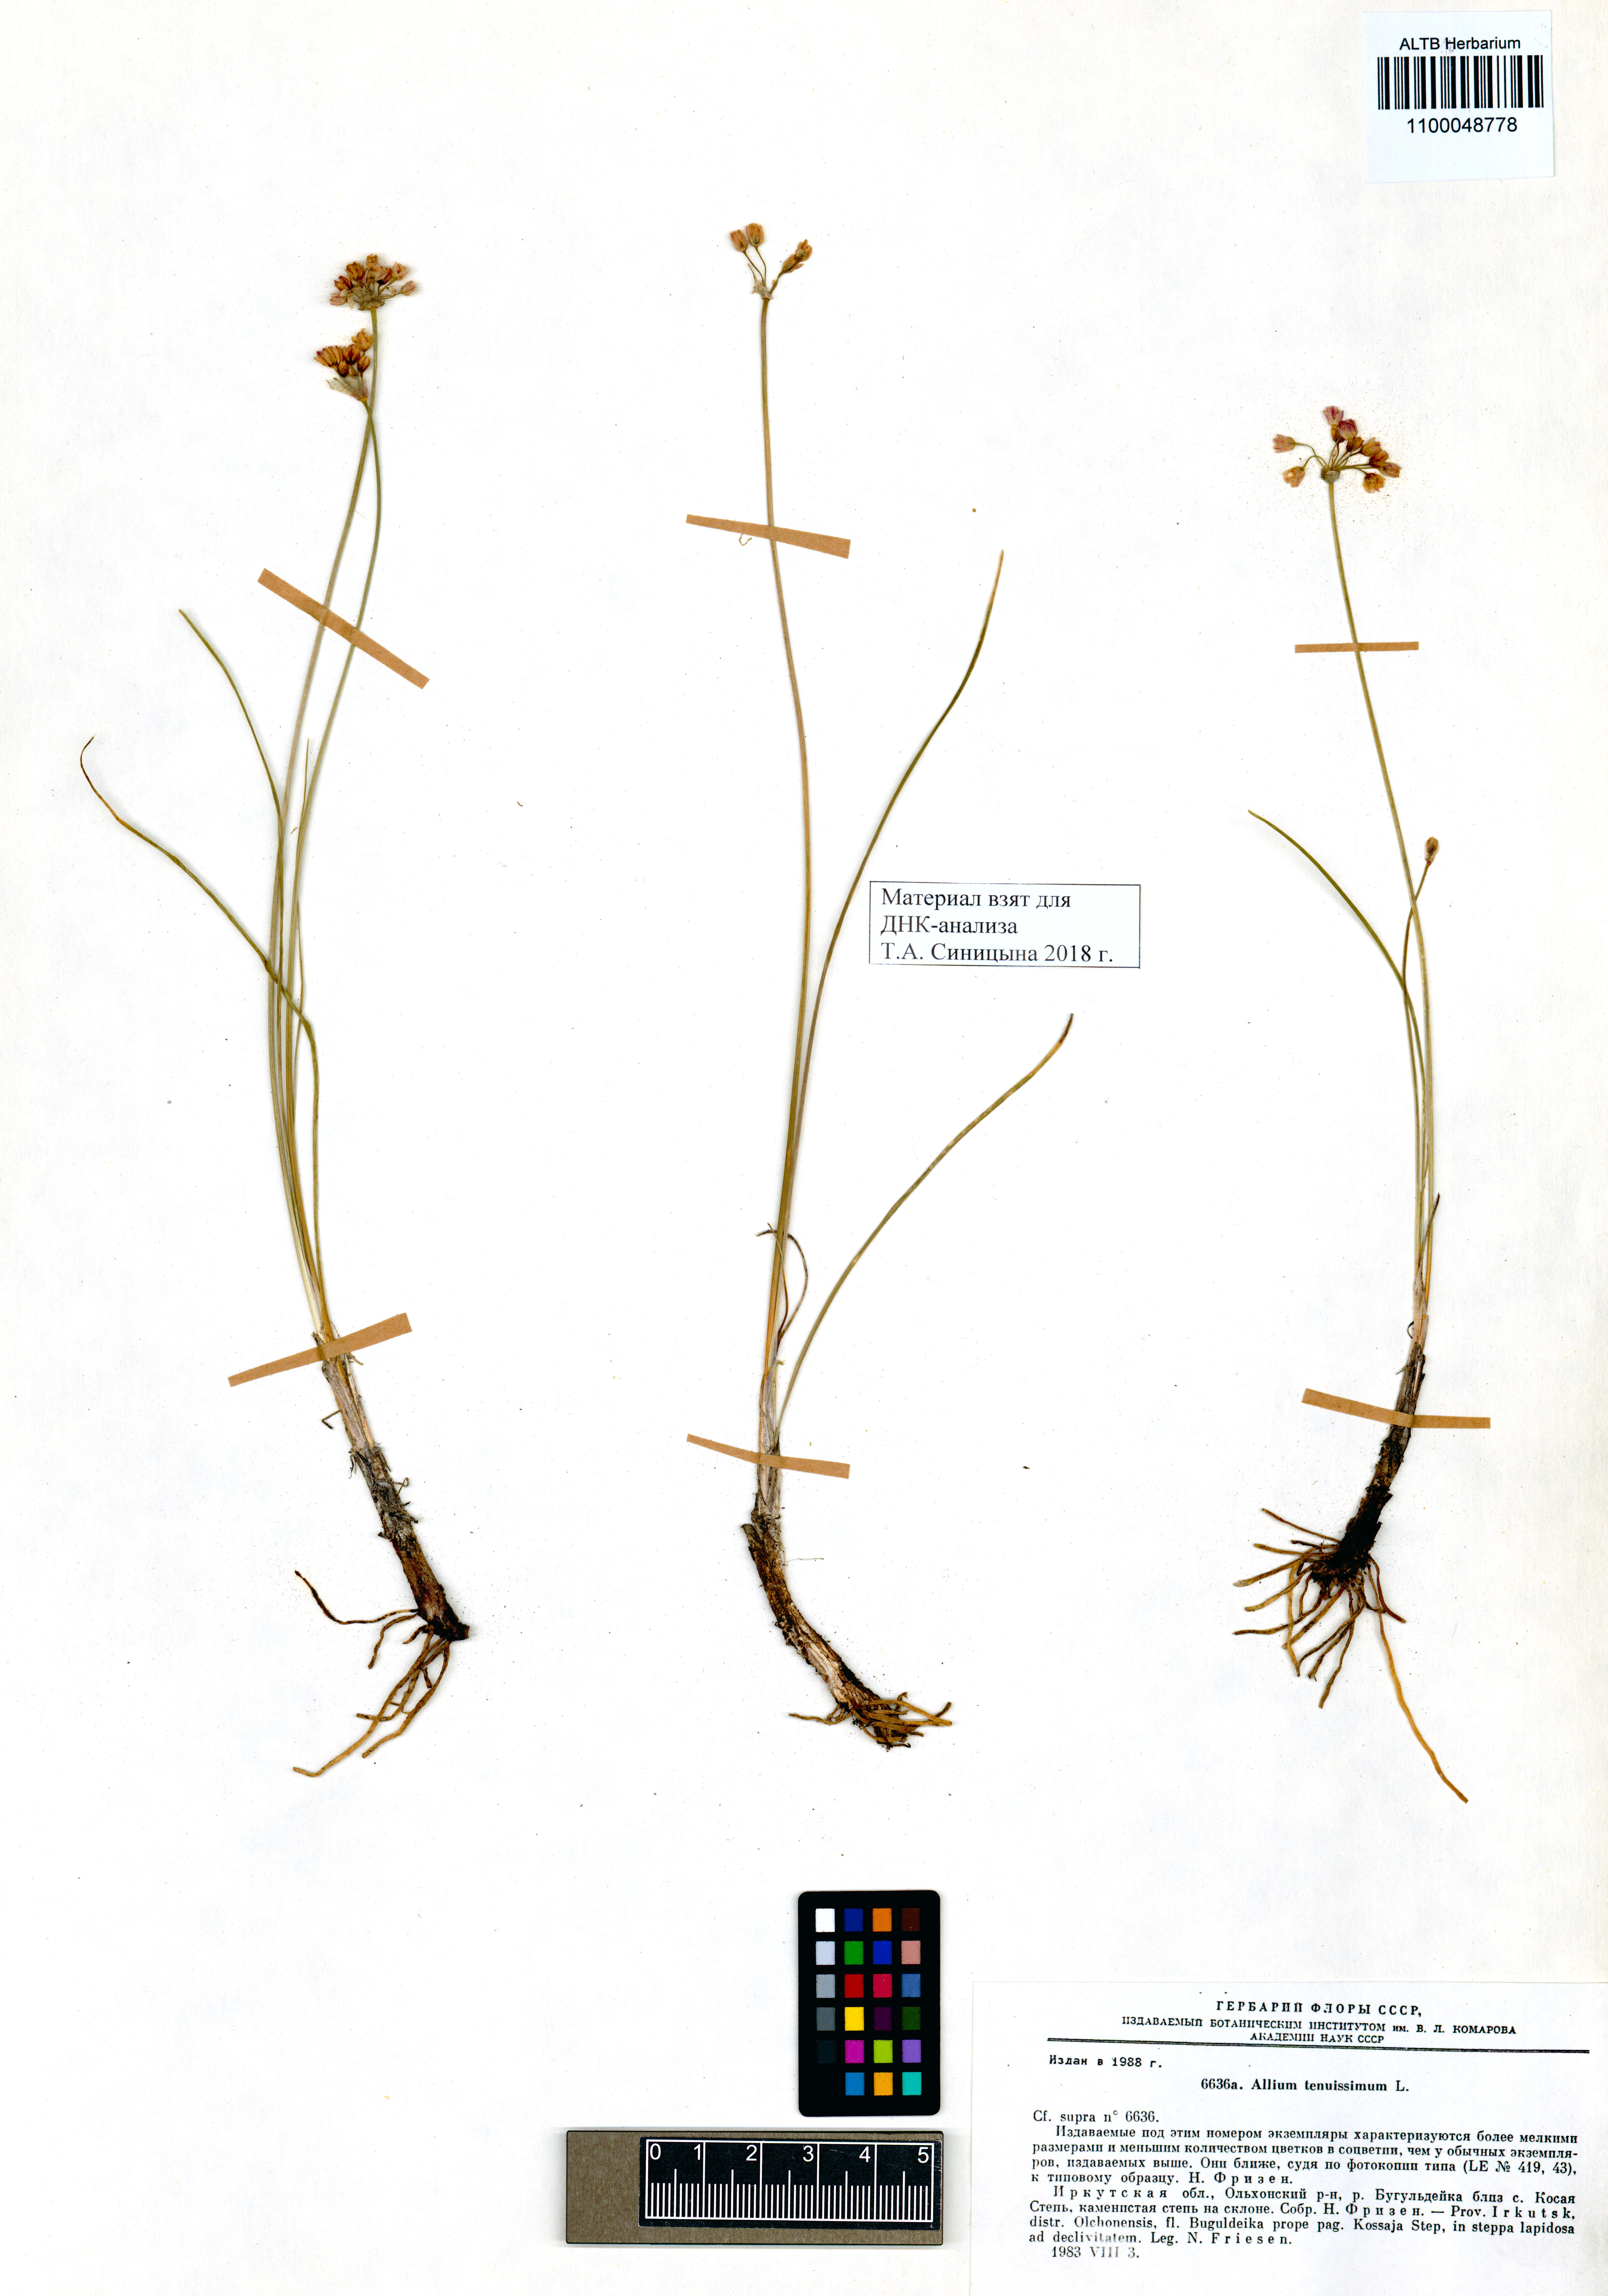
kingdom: Plantae
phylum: Tracheophyta
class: Liliopsida
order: Asparagales
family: Amaryllidaceae
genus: Allium
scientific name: Allium tenuissimum
